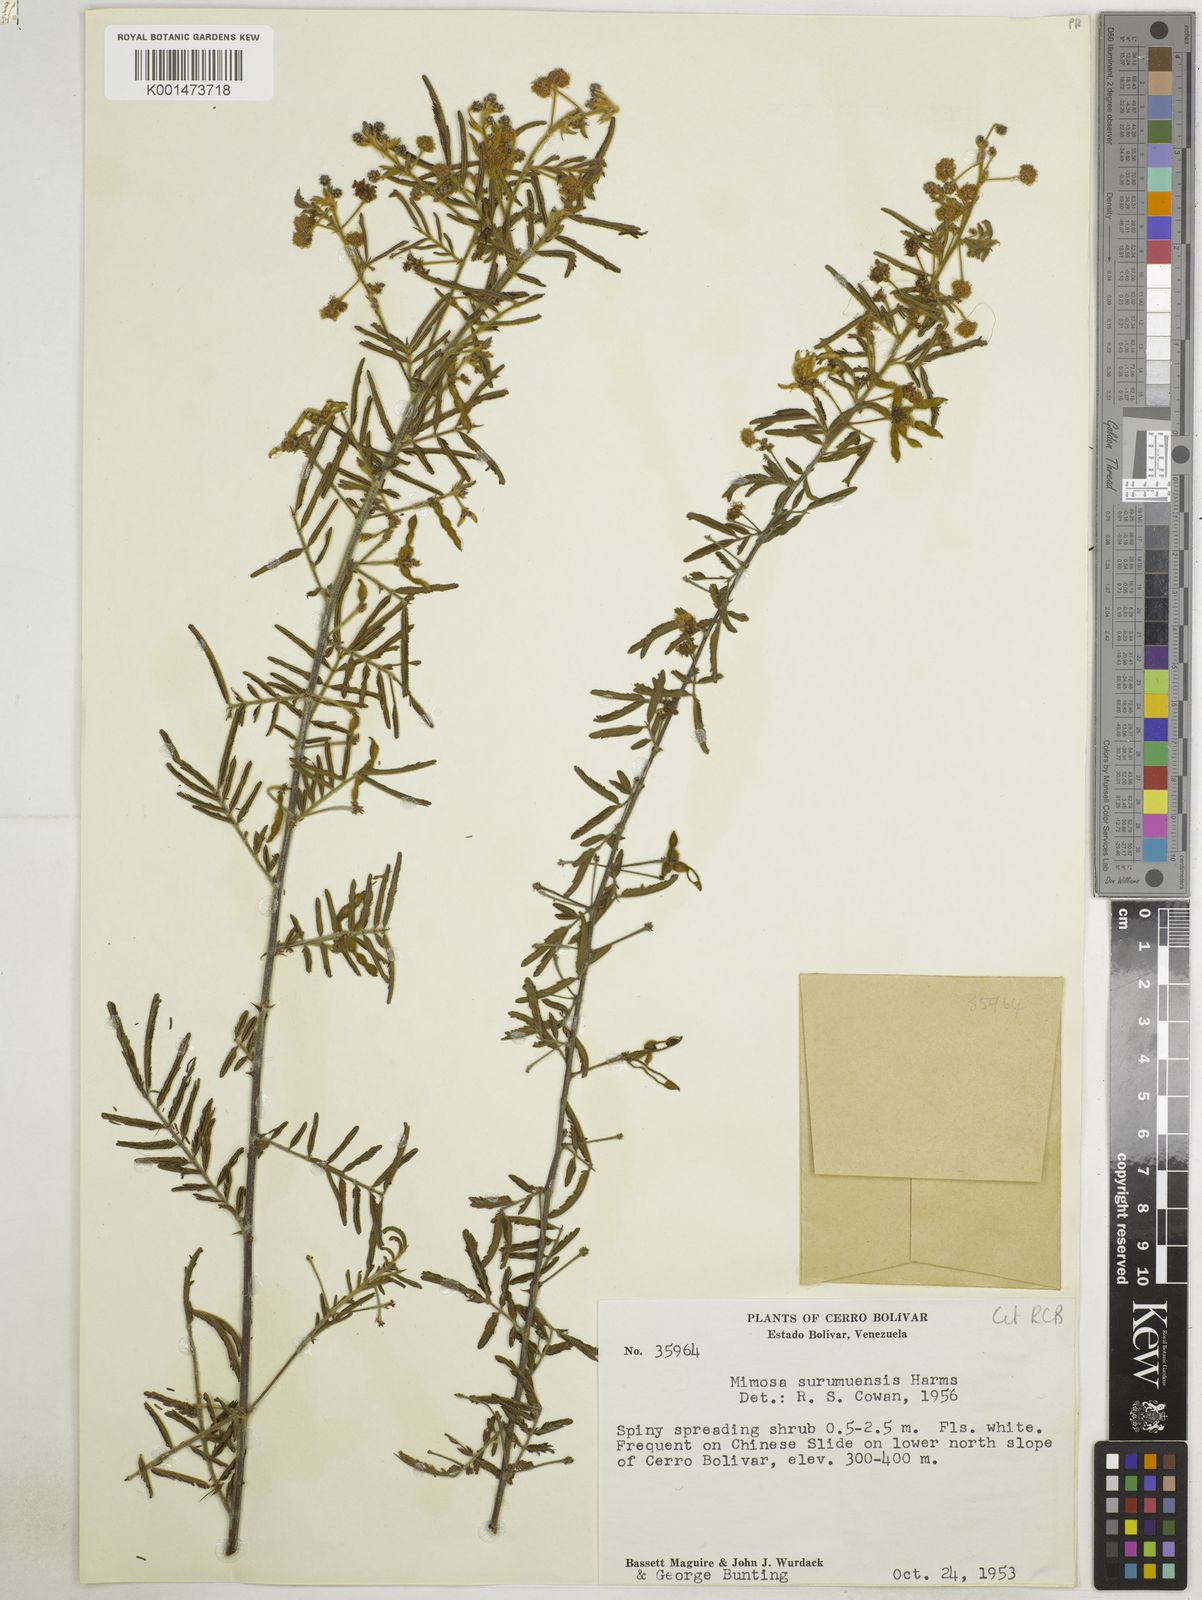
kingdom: Plantae
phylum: Tracheophyta
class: Magnoliopsida
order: Fabales
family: Fabaceae
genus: Mimosa
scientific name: Mimosa surumuensis
